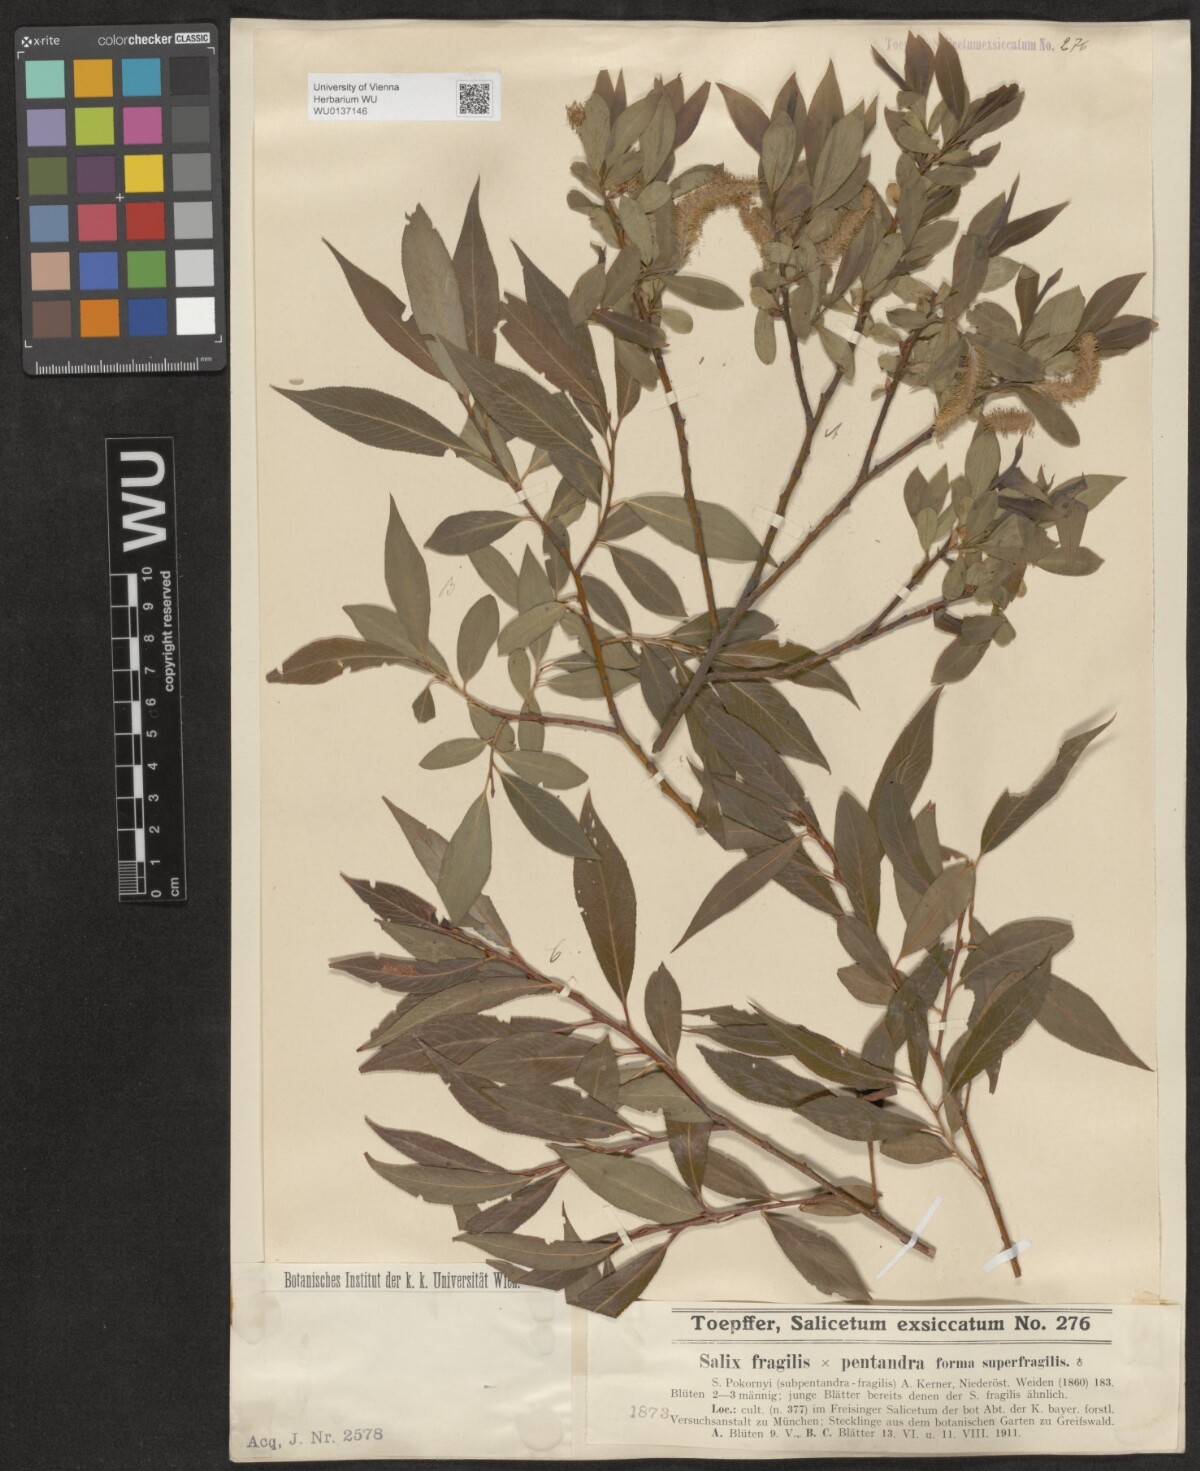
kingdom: Plantae
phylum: Tracheophyta
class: Magnoliopsida
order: Malpighiales
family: Salicaceae
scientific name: Salicaceae
